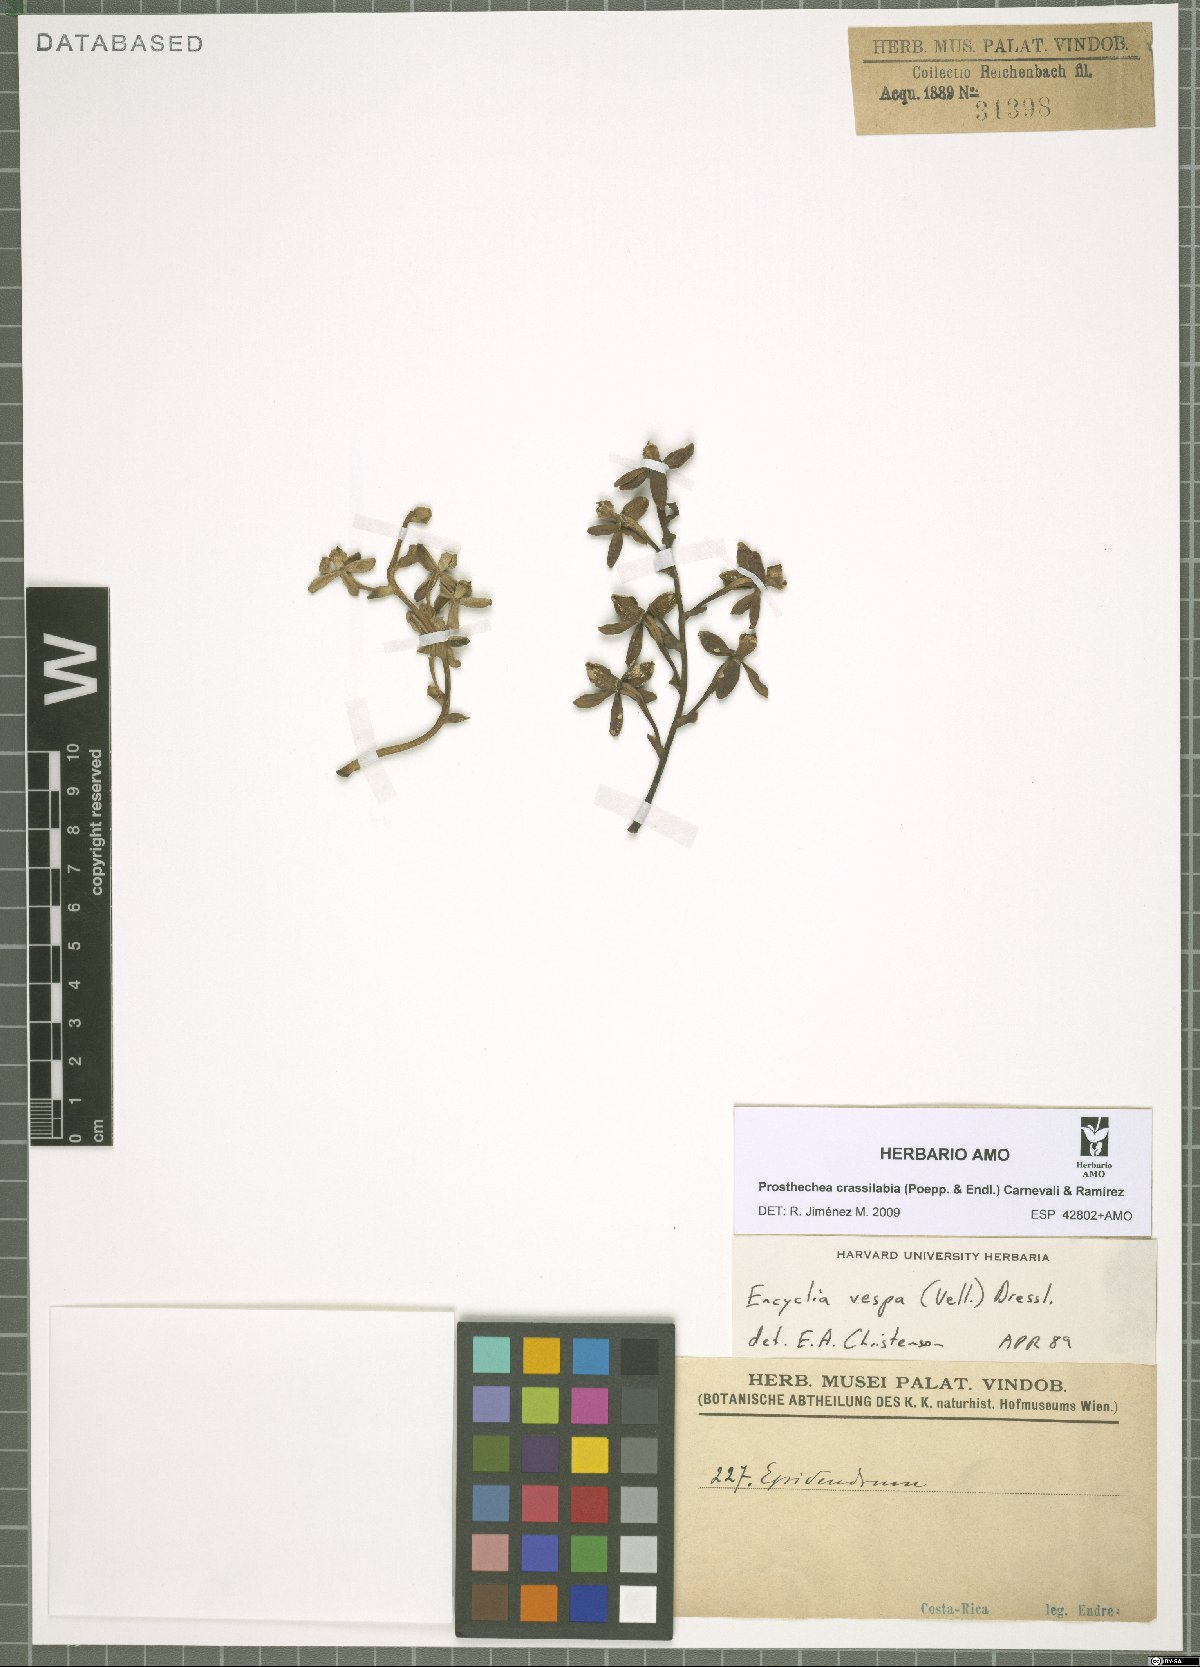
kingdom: Plantae
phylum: Tracheophyta
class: Liliopsida
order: Asparagales
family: Orchidaceae
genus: Prosthechea
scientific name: Prosthechea crassilabia
